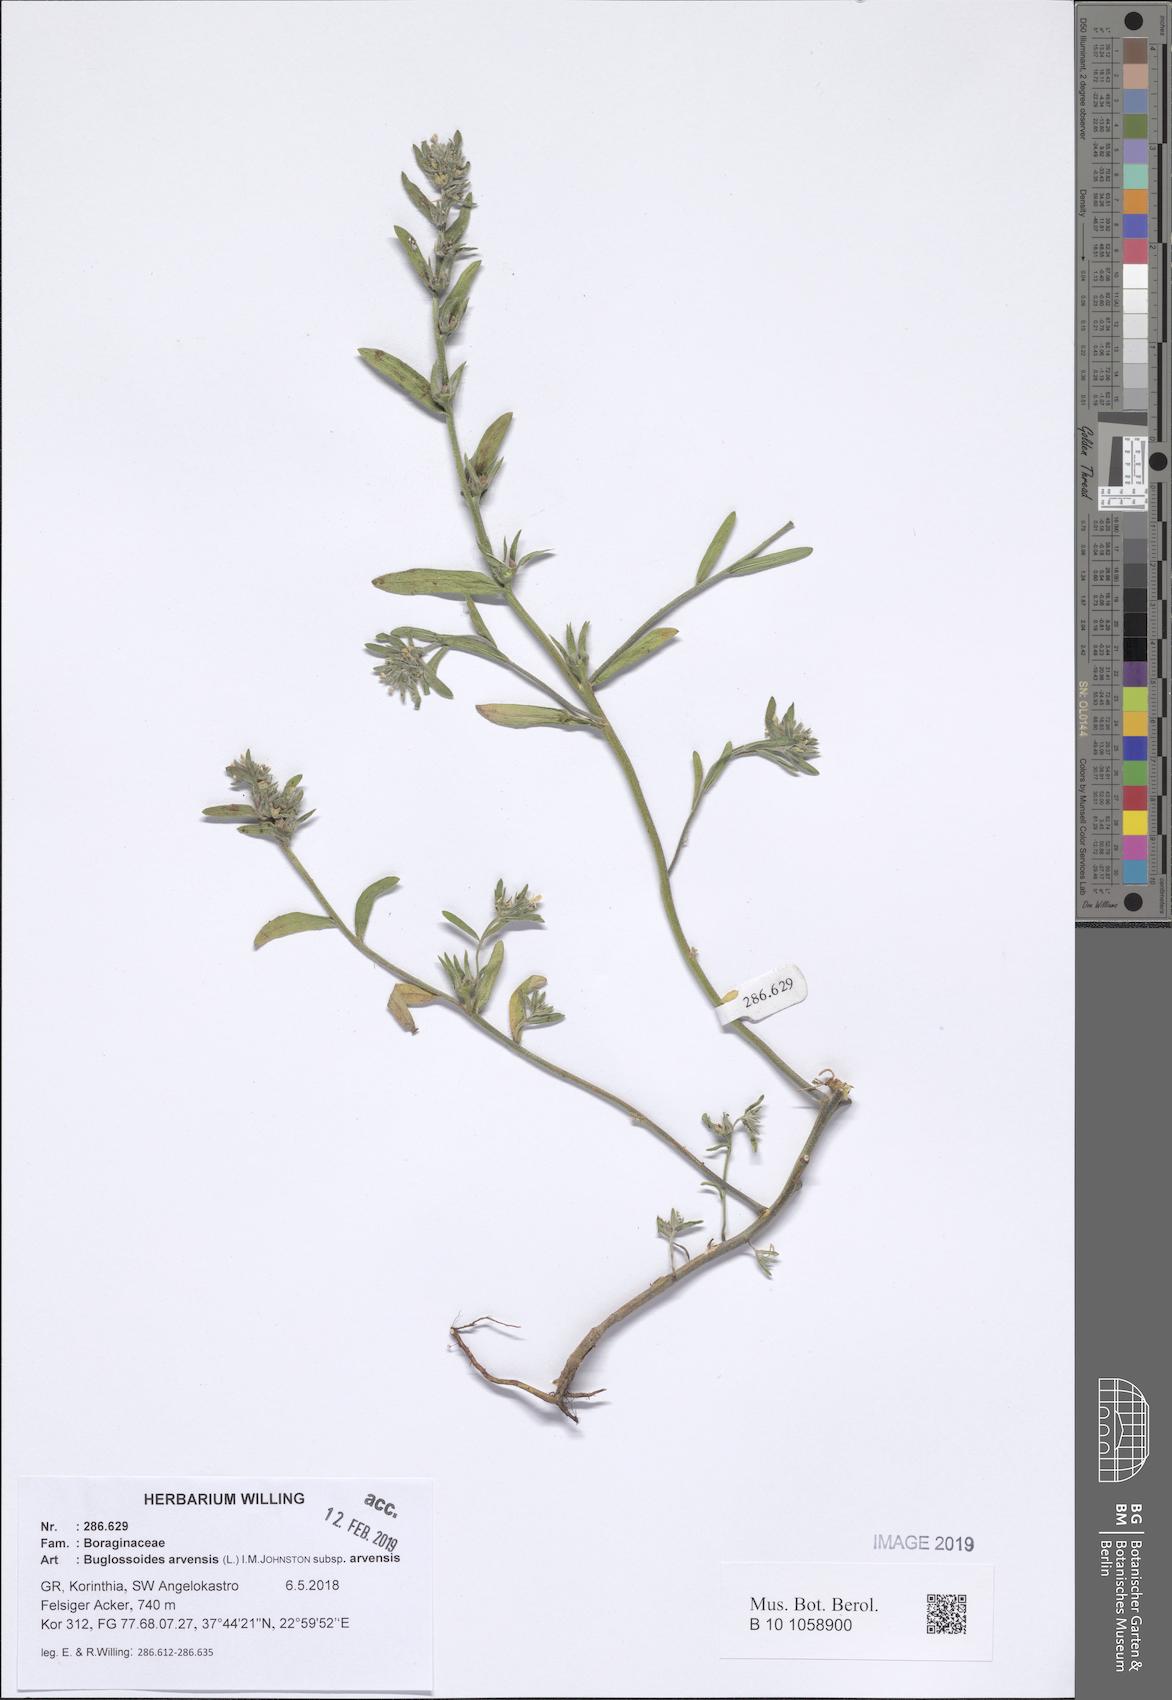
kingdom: Plantae
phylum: Tracheophyta
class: Magnoliopsida
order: Boraginales
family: Boraginaceae
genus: Buglossoides
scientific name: Buglossoides arvensis
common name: Corn gromwell
